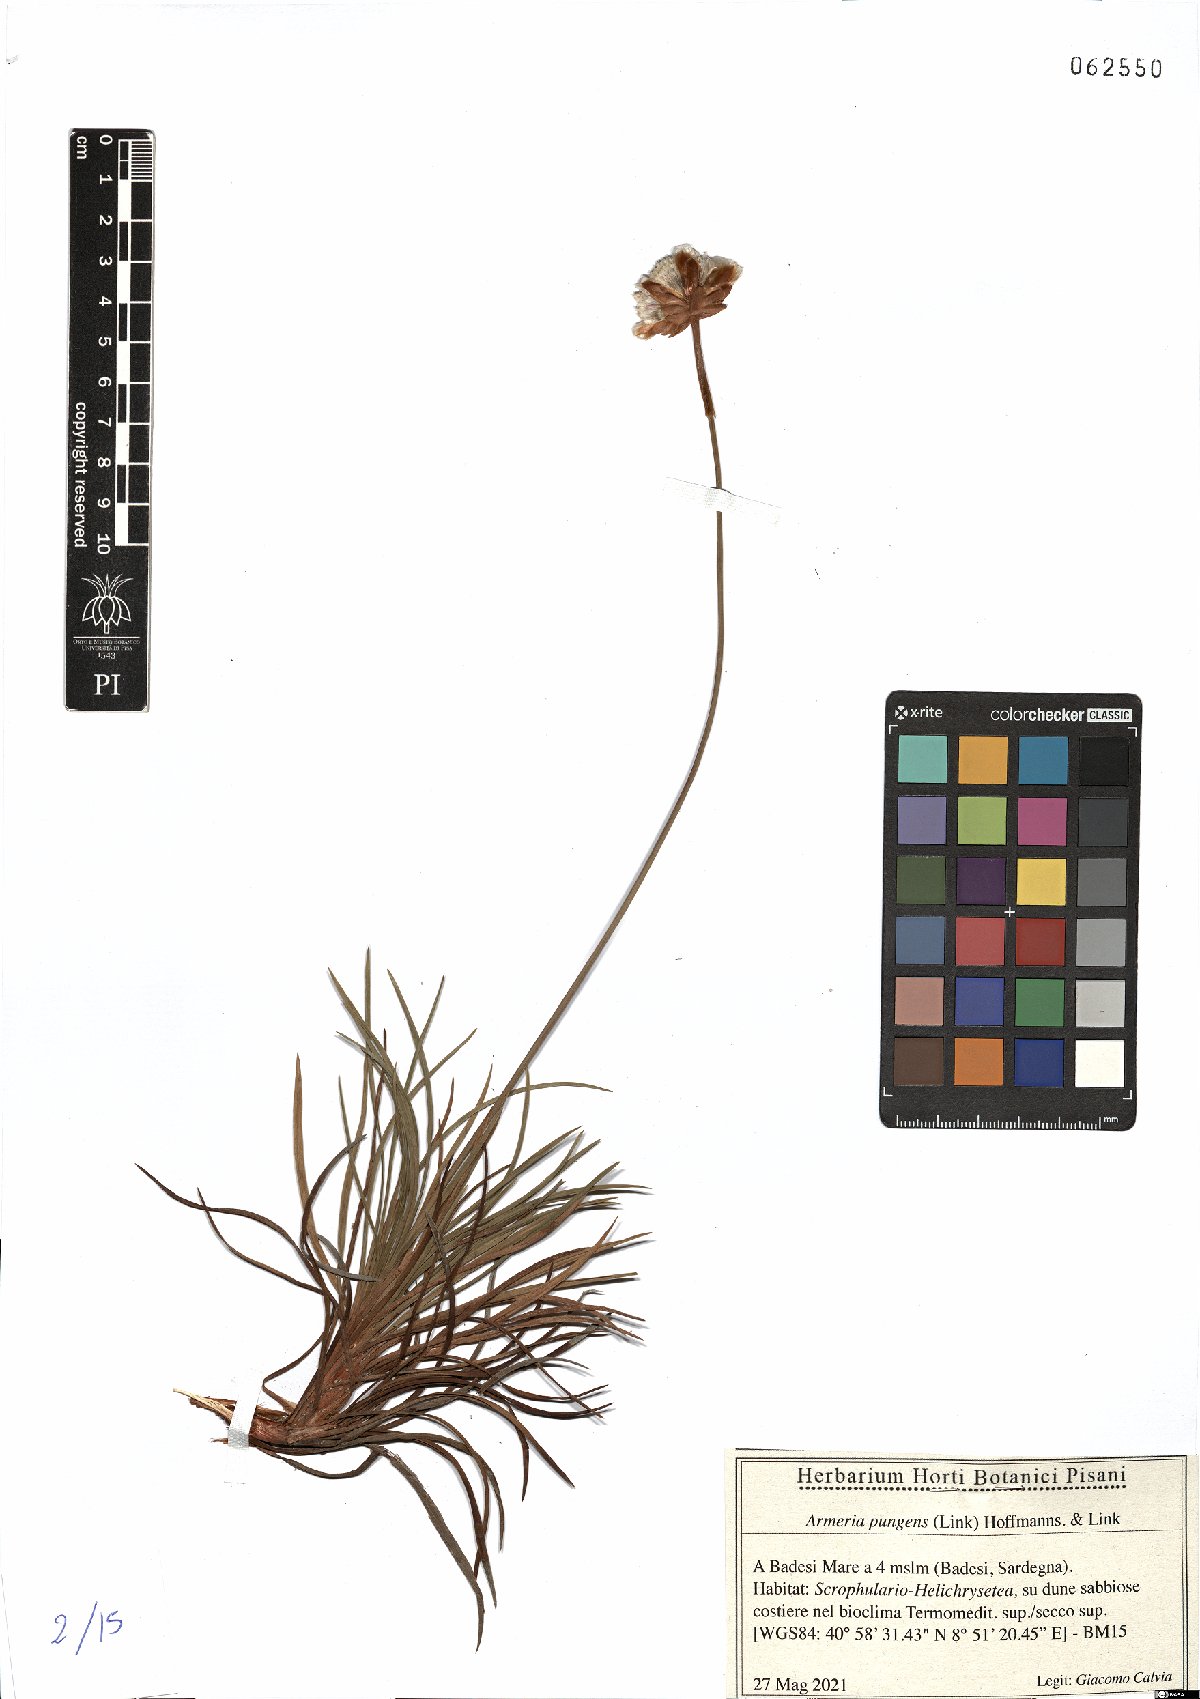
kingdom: Plantae
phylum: Tracheophyta
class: Magnoliopsida
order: Caryophyllales
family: Plumbaginaceae
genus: Armeria
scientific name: Armeria pungens
